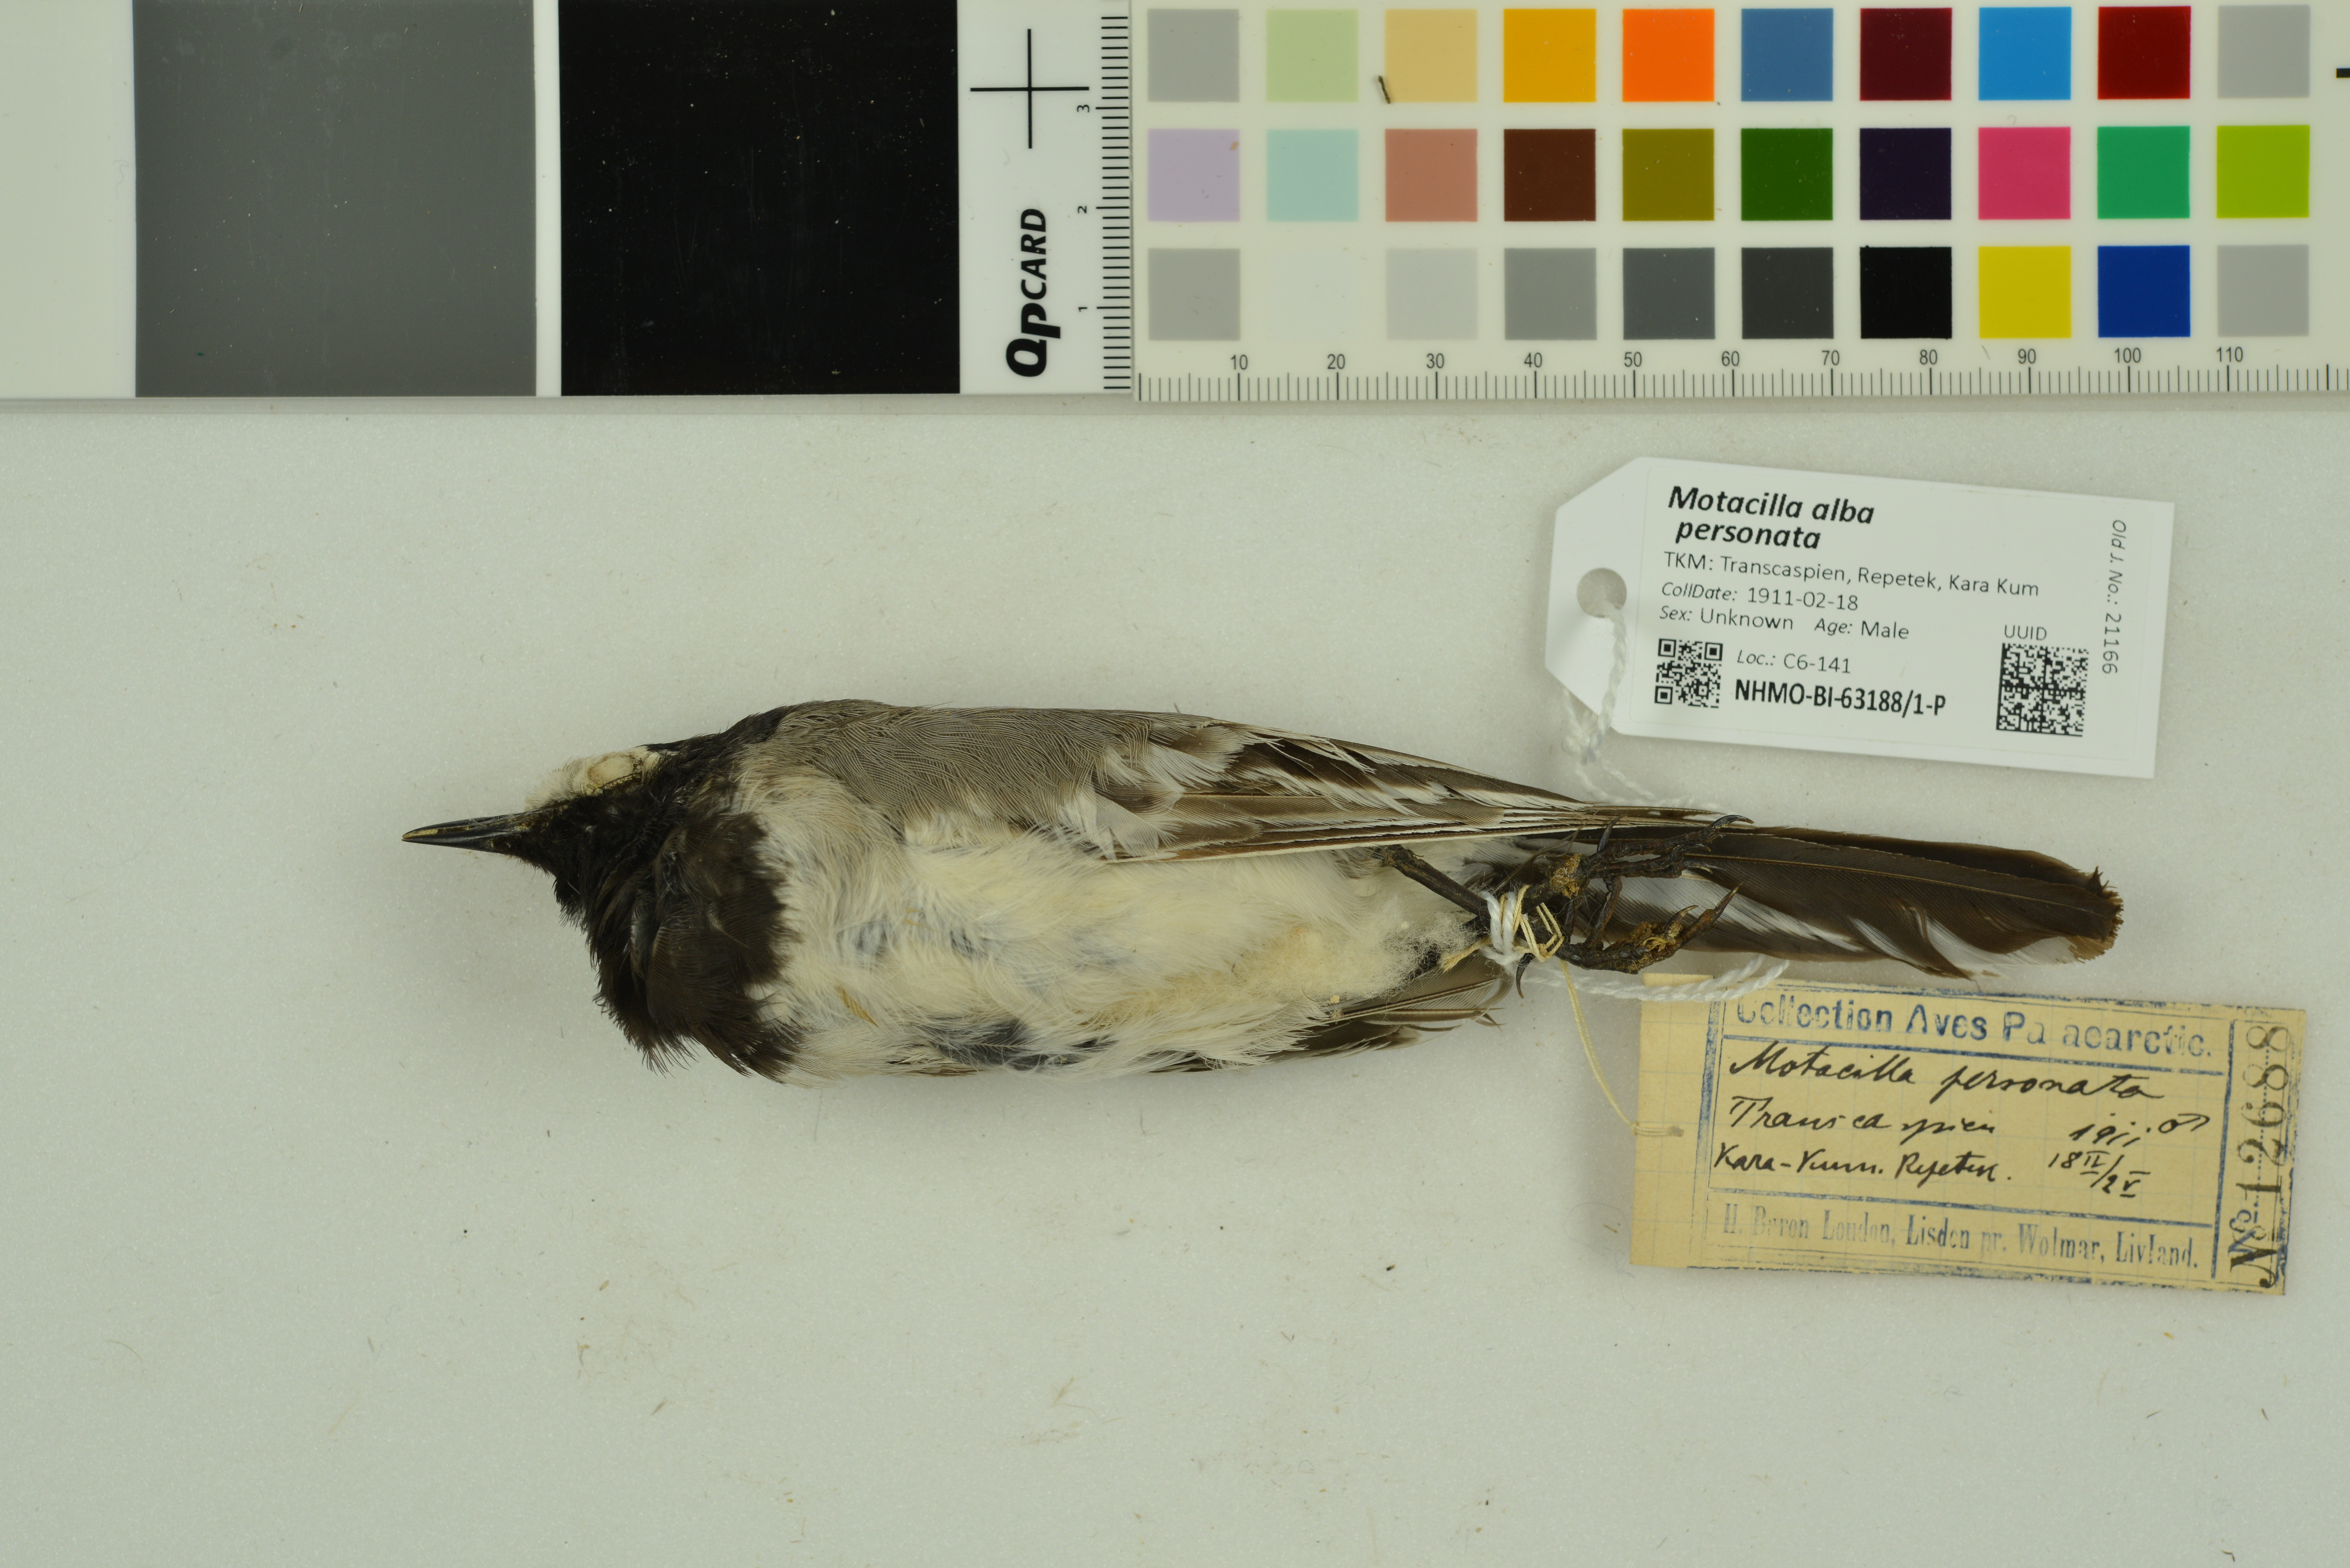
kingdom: Animalia
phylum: Chordata
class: Aves
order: Passeriformes
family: Motacillidae
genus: Motacilla
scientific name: Motacilla alba
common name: White wagtail
